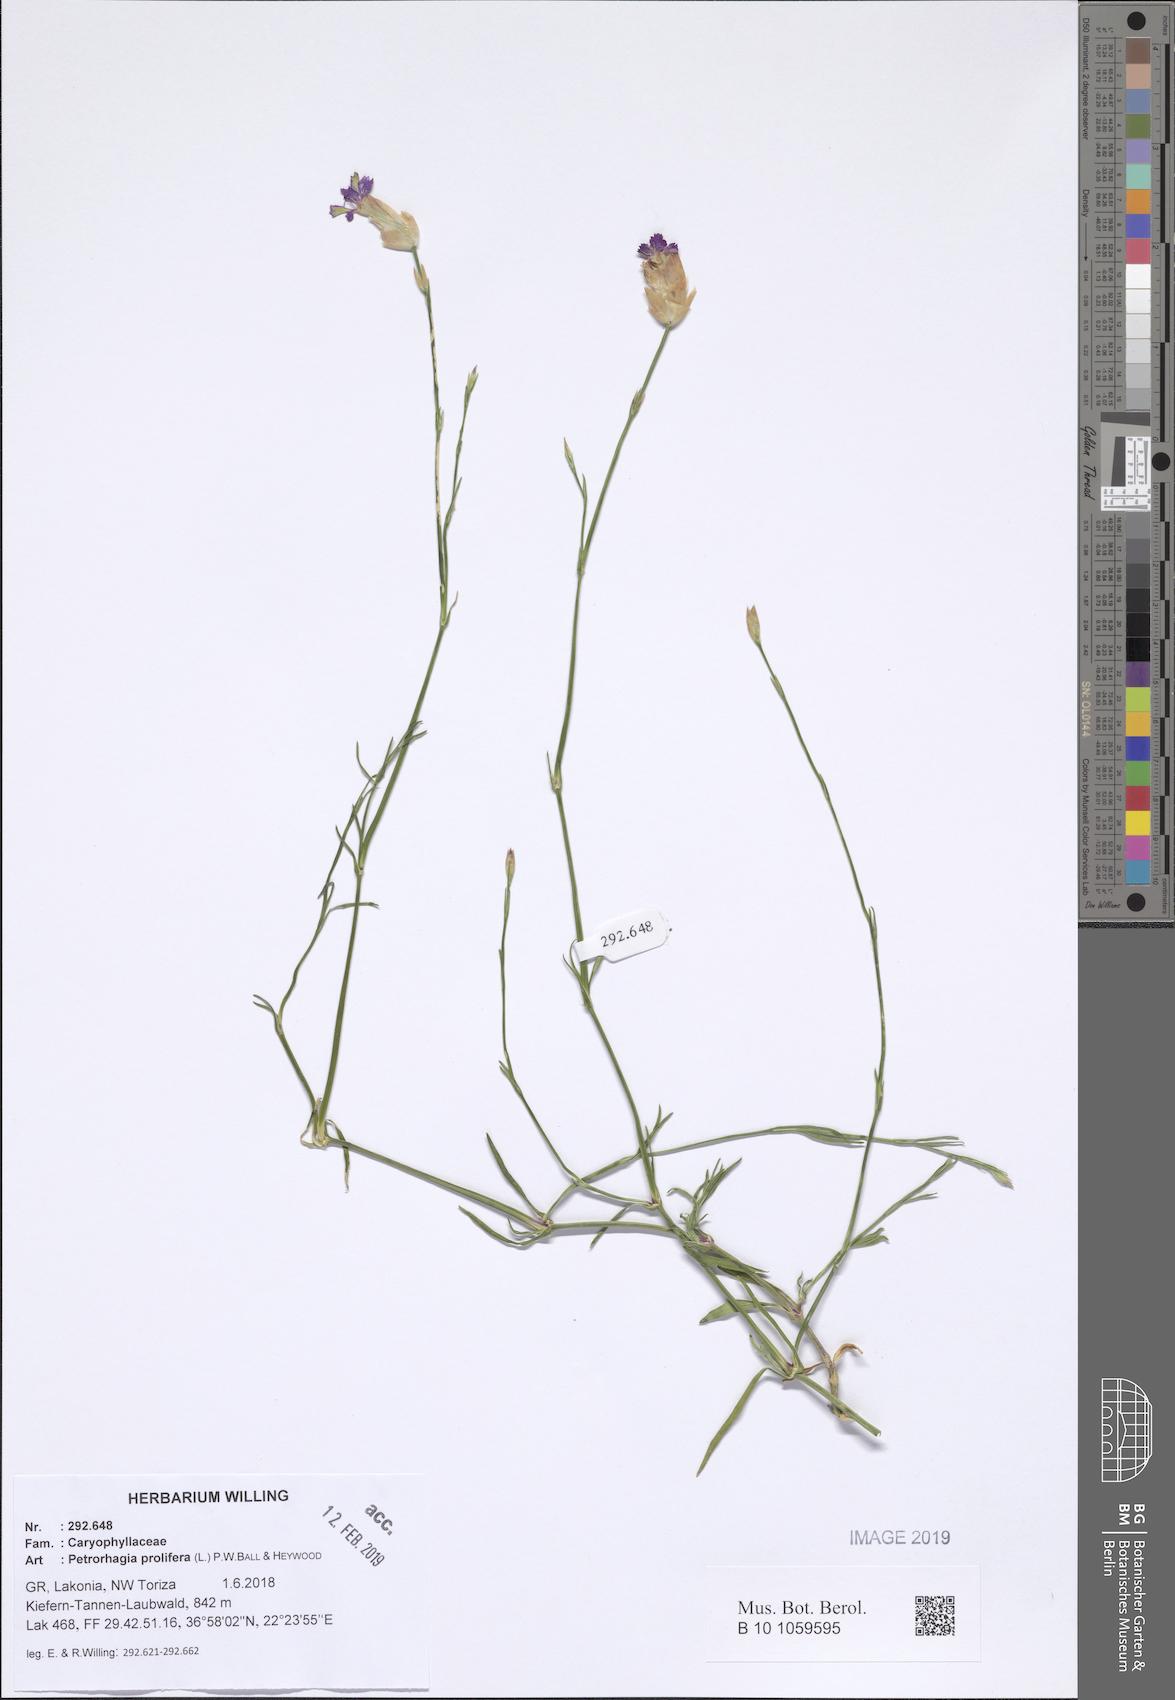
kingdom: Plantae
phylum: Tracheophyta
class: Magnoliopsida
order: Caryophyllales
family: Caryophyllaceae
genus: Petrorhagia
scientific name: Petrorhagia prolifera
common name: Proliferous pink
